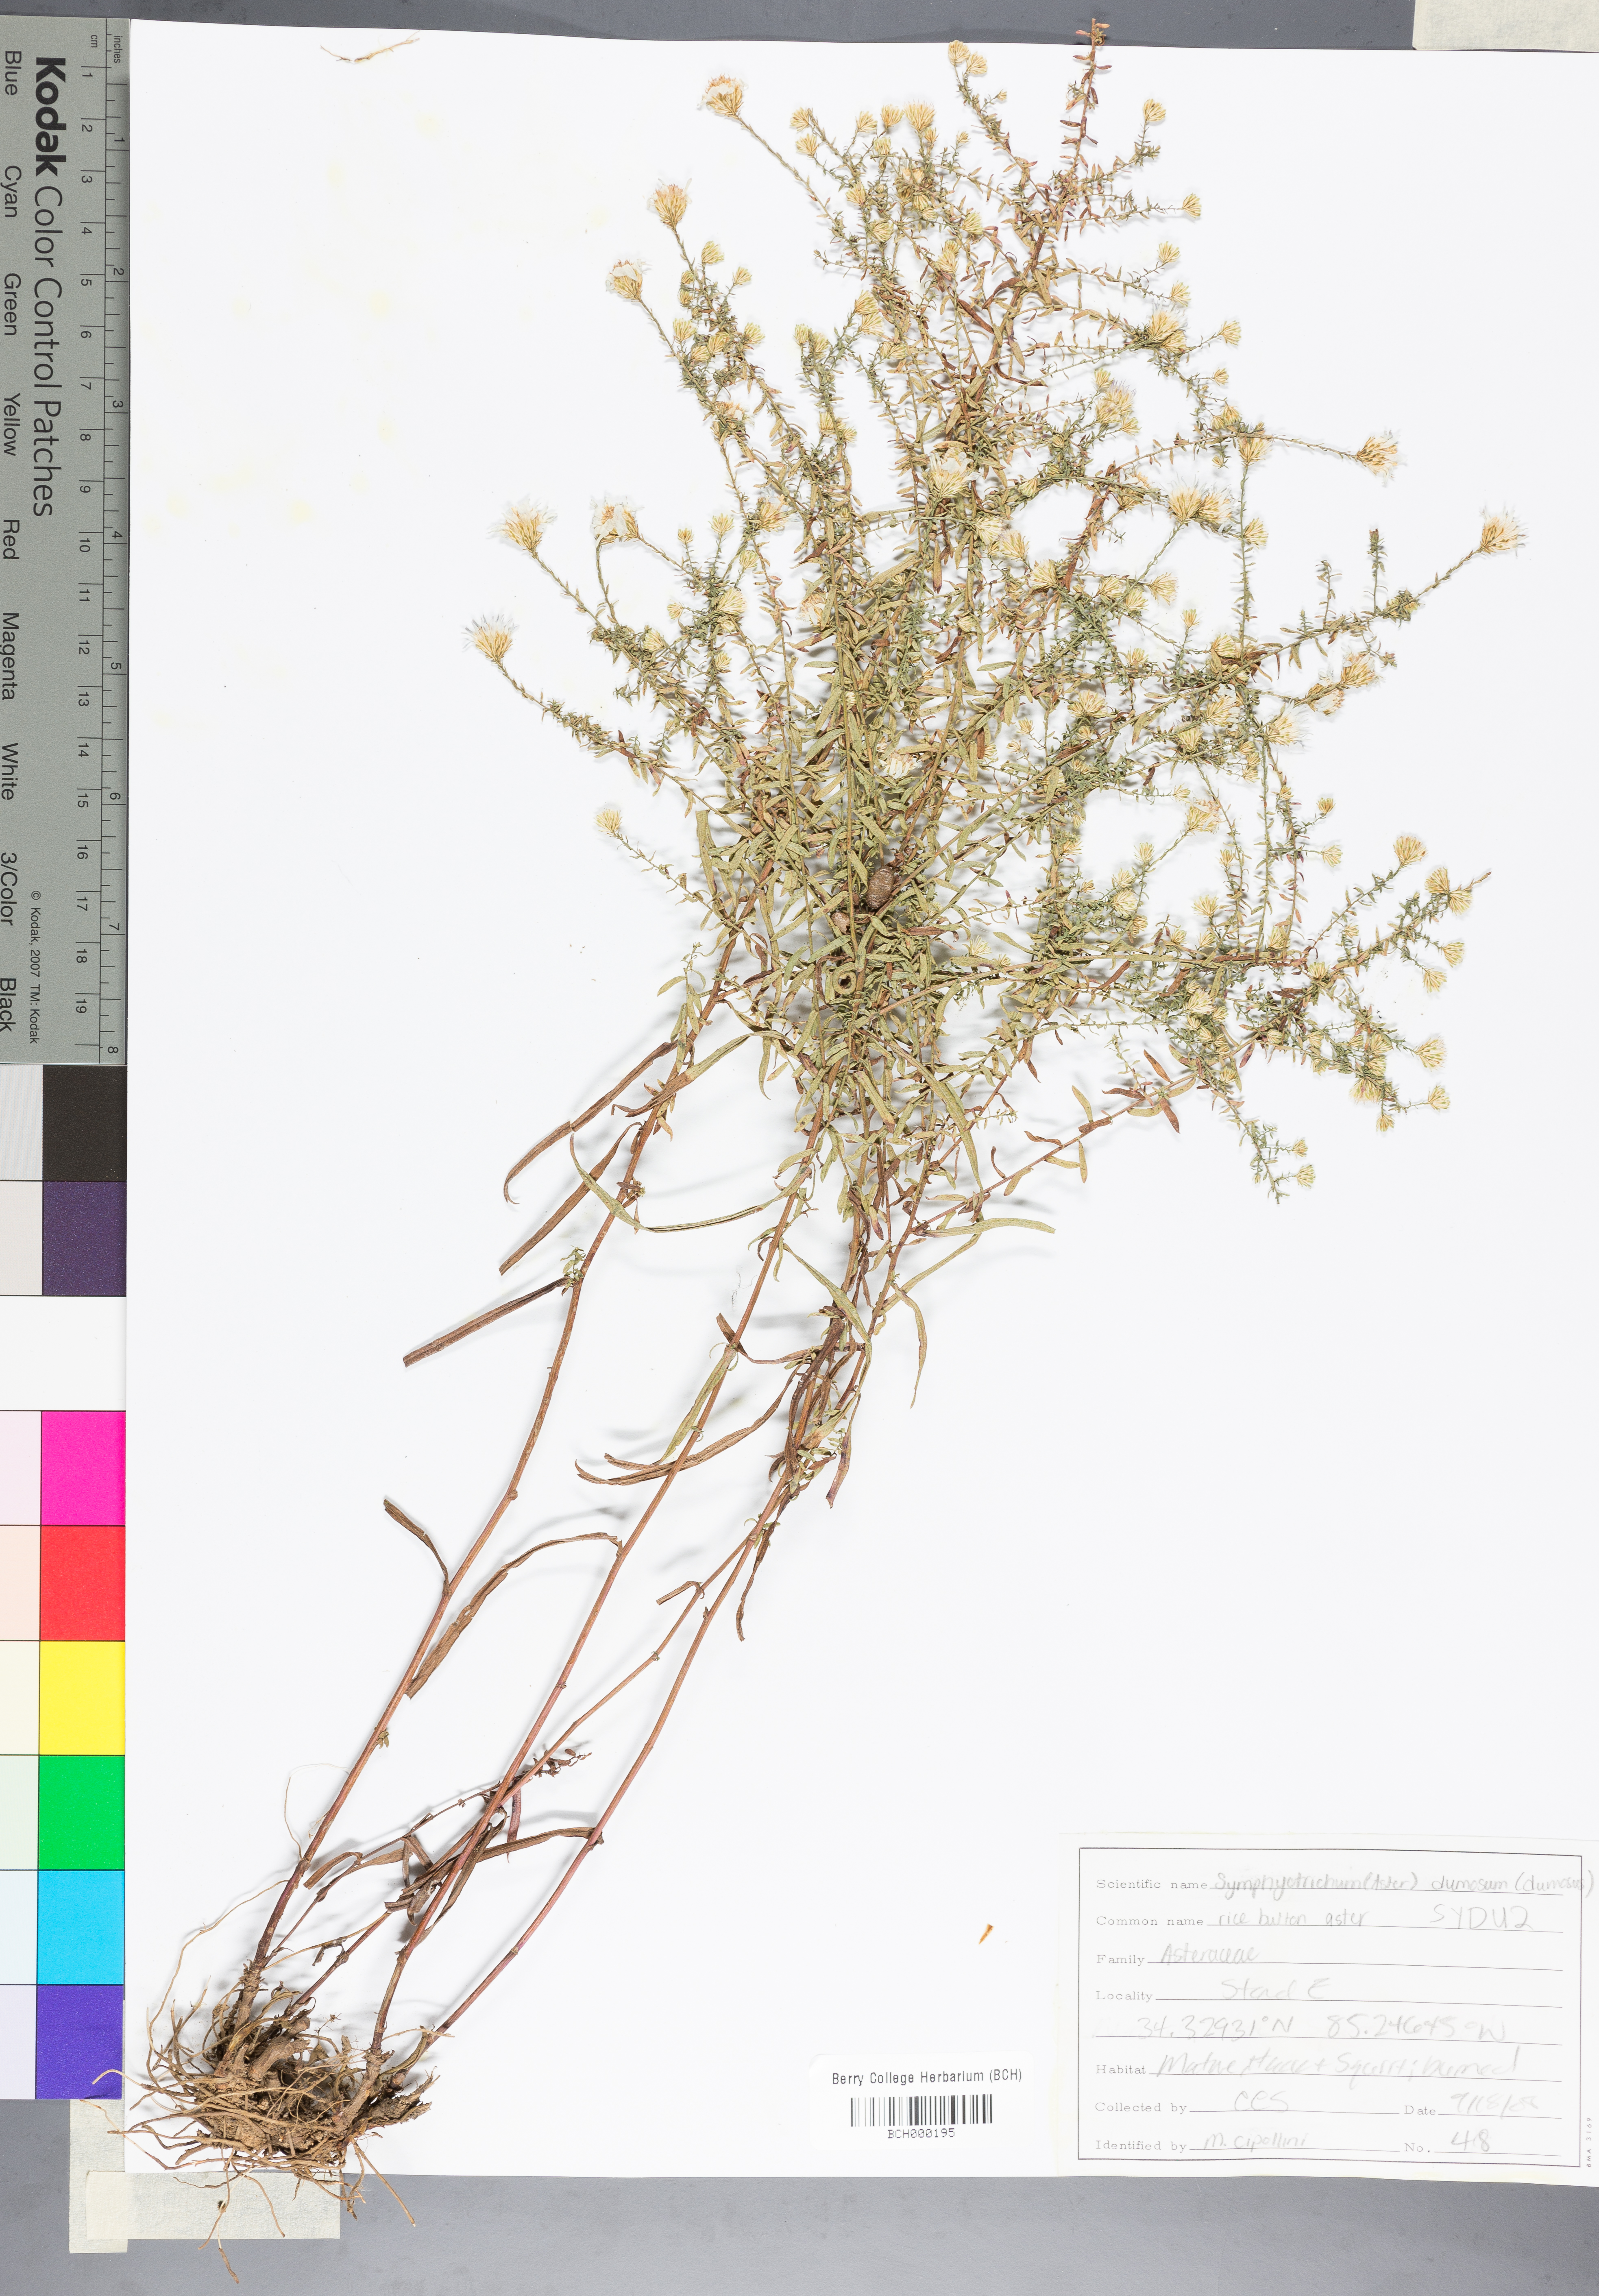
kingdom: Plantae
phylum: Tracheophyta
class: Magnoliopsida
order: Asterales
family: Asteraceae
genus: Symphyotrichum
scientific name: Symphyotrichum dumosum
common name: Bushy aster
